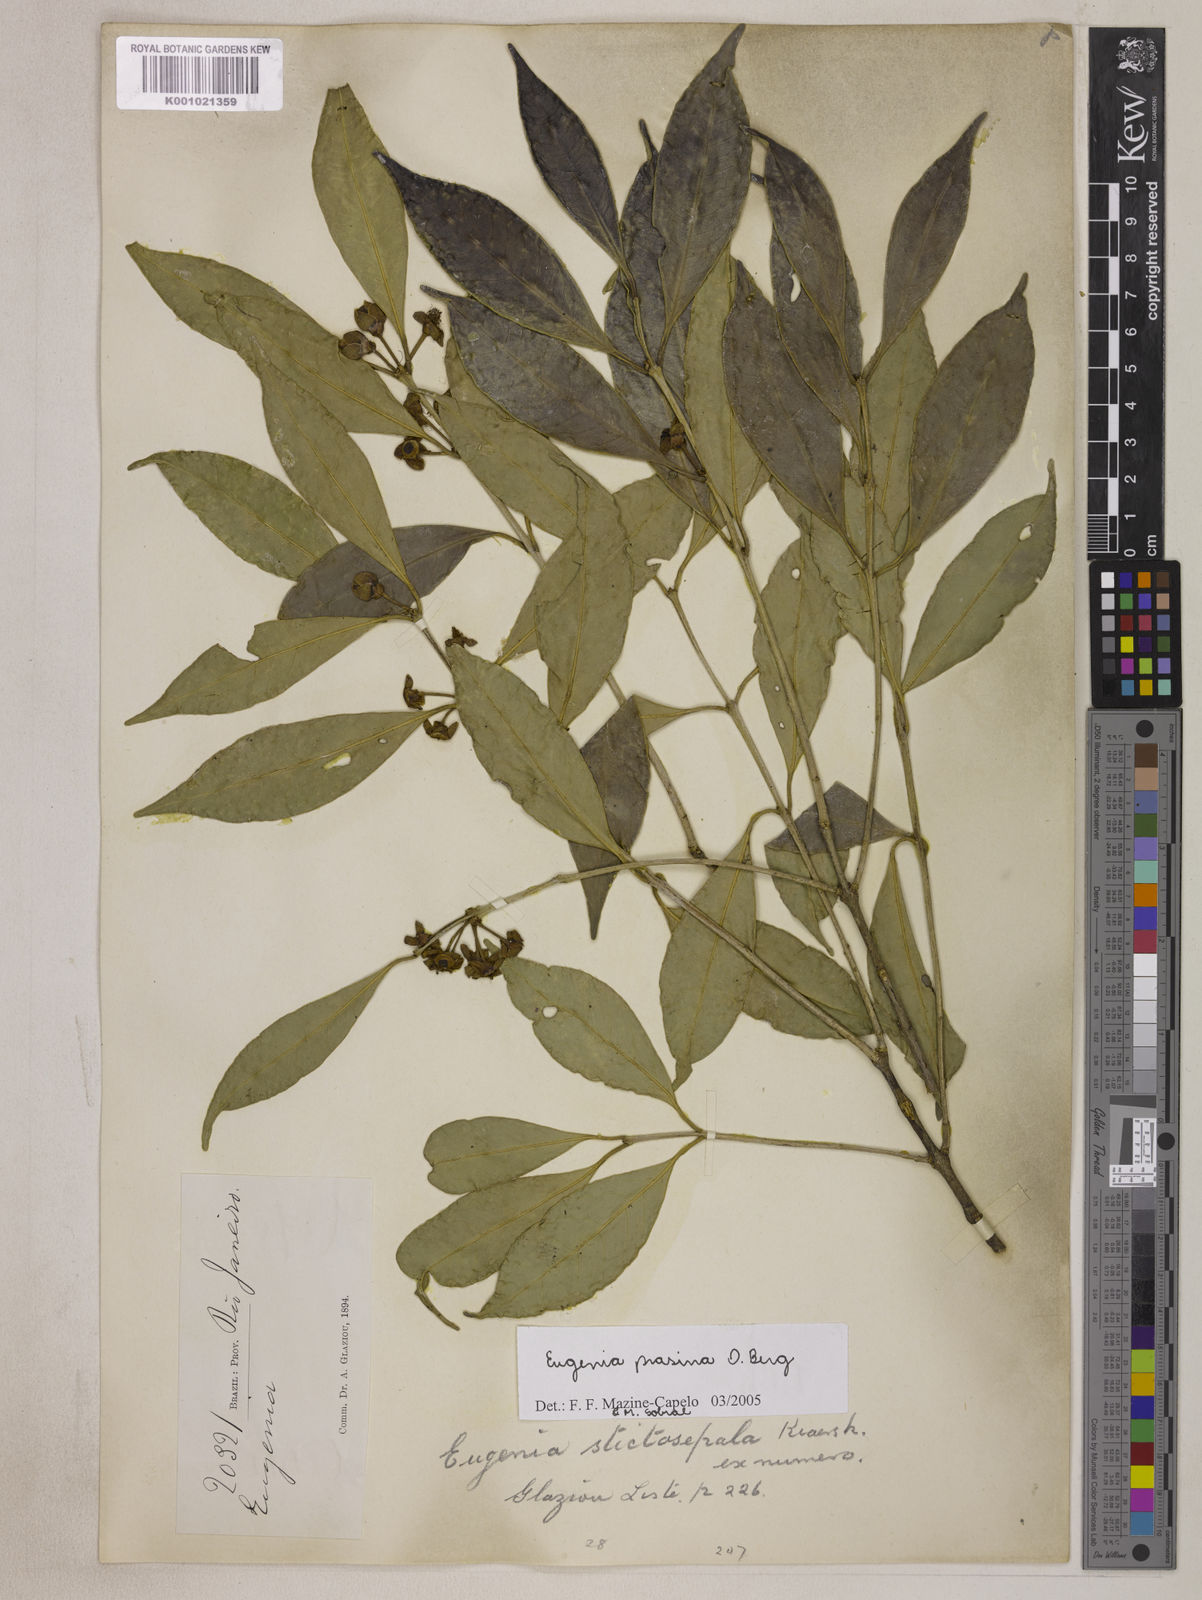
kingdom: Plantae
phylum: Tracheophyta
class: Magnoliopsida
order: Myrtales
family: Myrtaceae
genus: Eugenia
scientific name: Eugenia prasina
